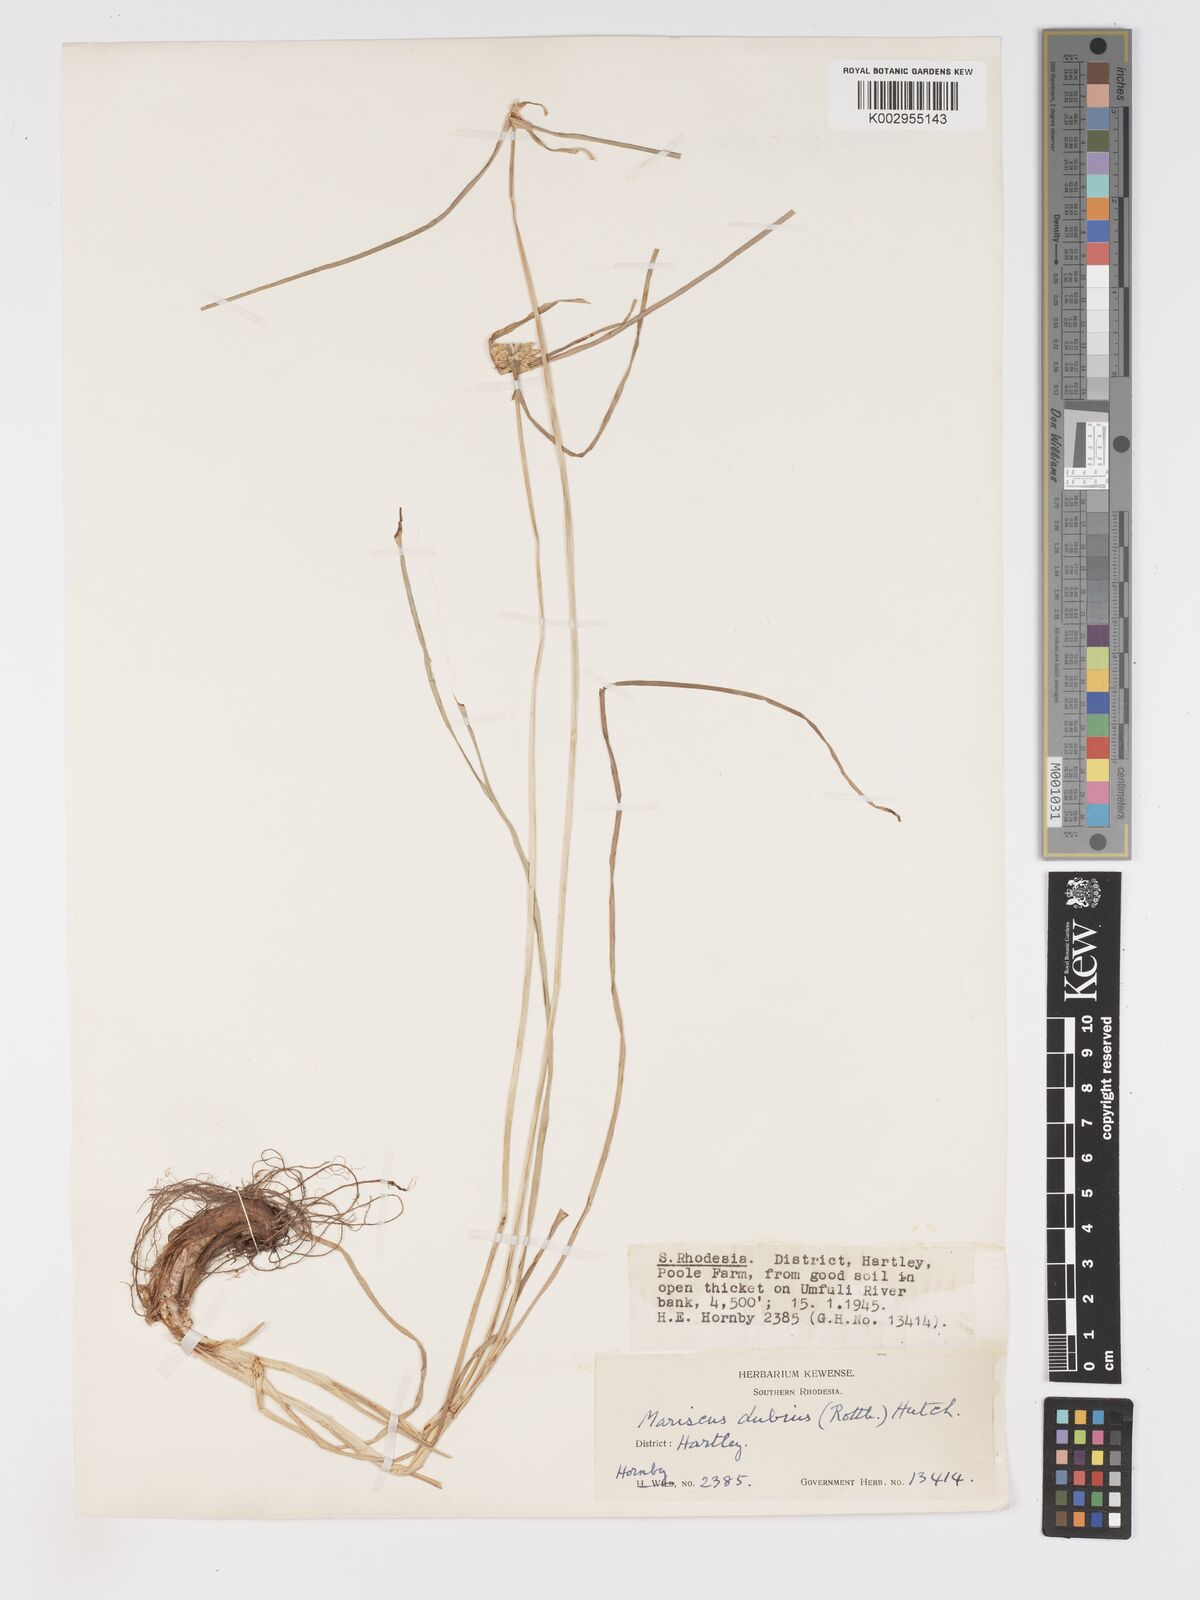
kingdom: Plantae
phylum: Tracheophyta
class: Liliopsida
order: Poales
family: Cyperaceae
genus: Cyperus
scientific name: Cyperus dubius
